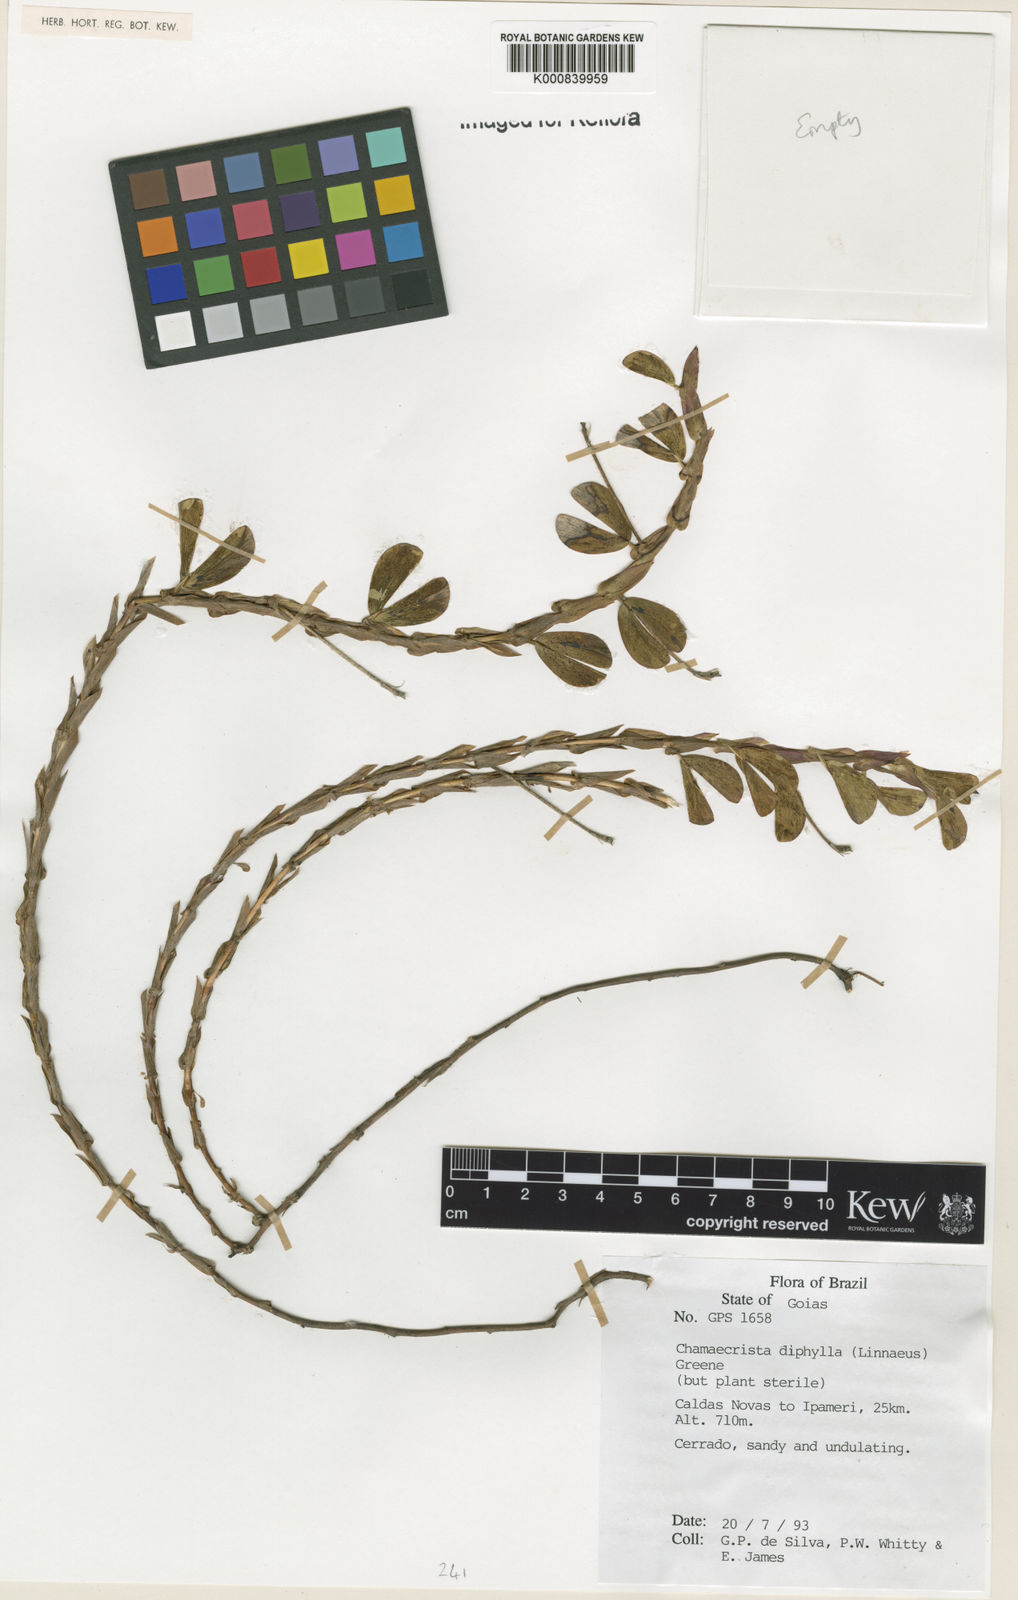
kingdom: Plantae
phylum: Tracheophyta
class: Magnoliopsida
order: Fabales
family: Fabaceae
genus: Chamaecrista
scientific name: Chamaecrista diphylla
